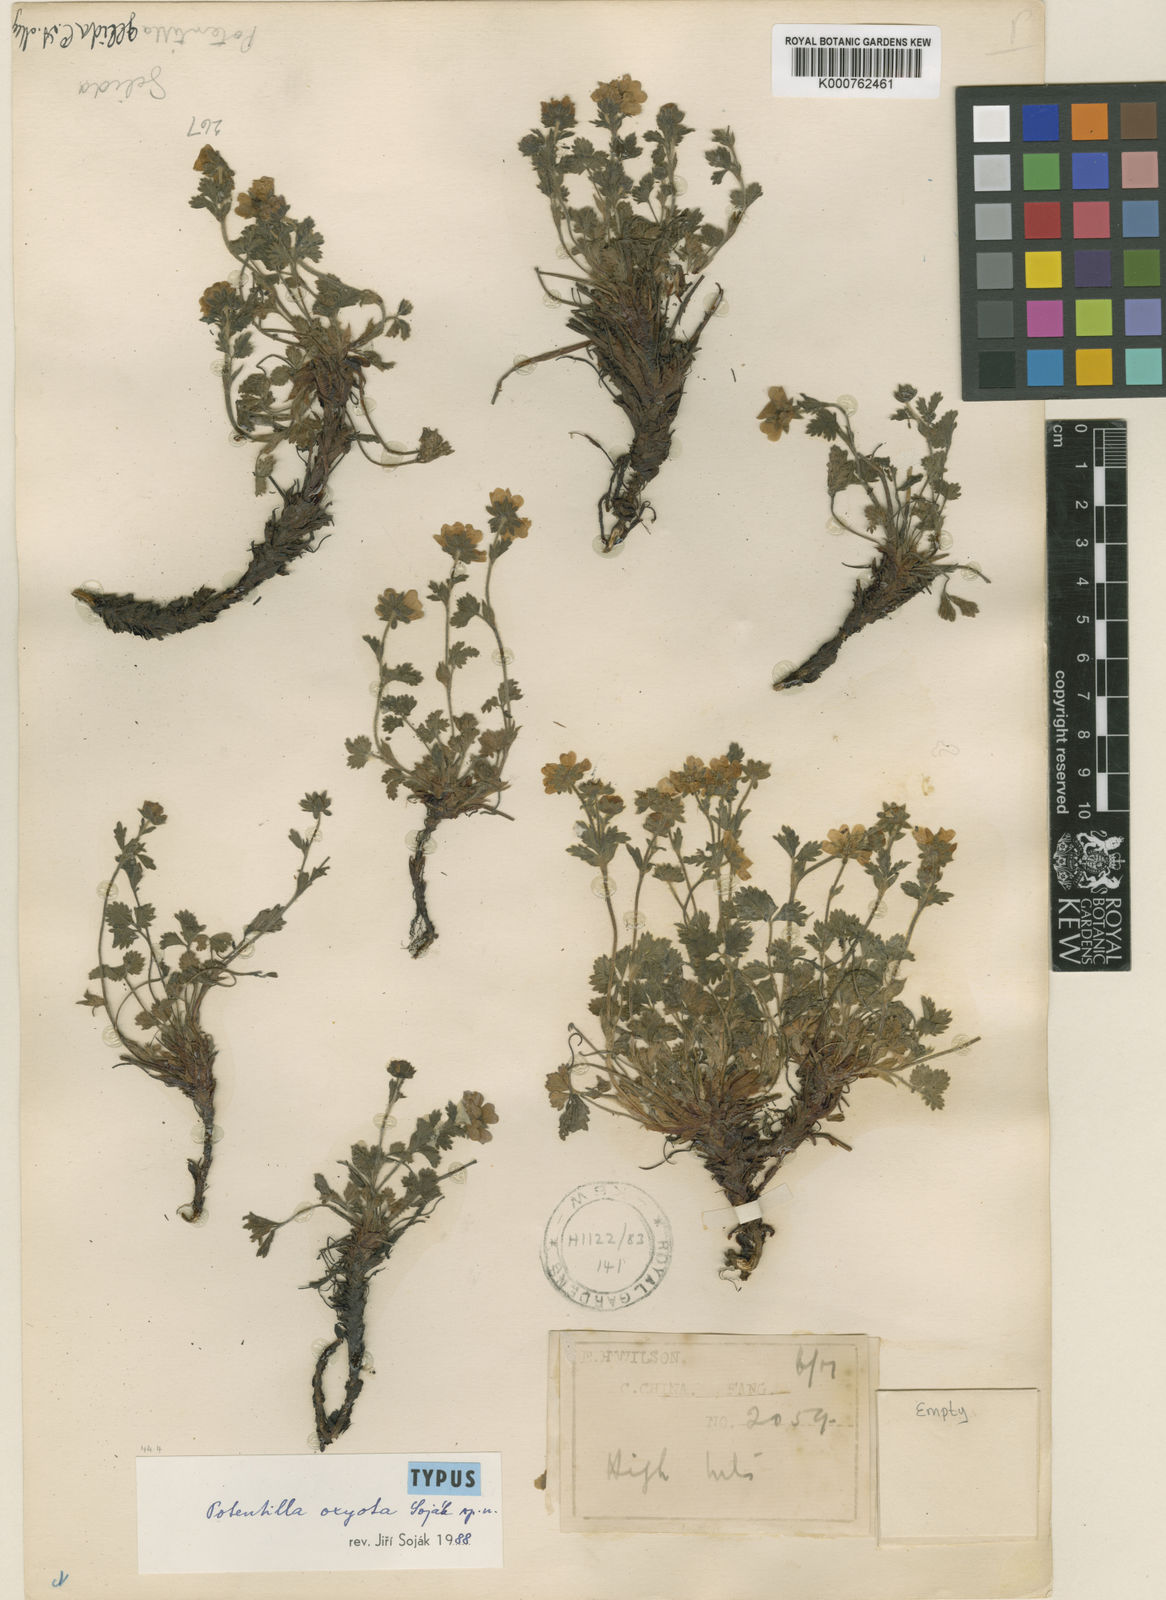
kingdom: Plantae
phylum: Tracheophyta
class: Magnoliopsida
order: Rosales
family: Rosaceae
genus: Potentilla
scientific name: Potentilla
